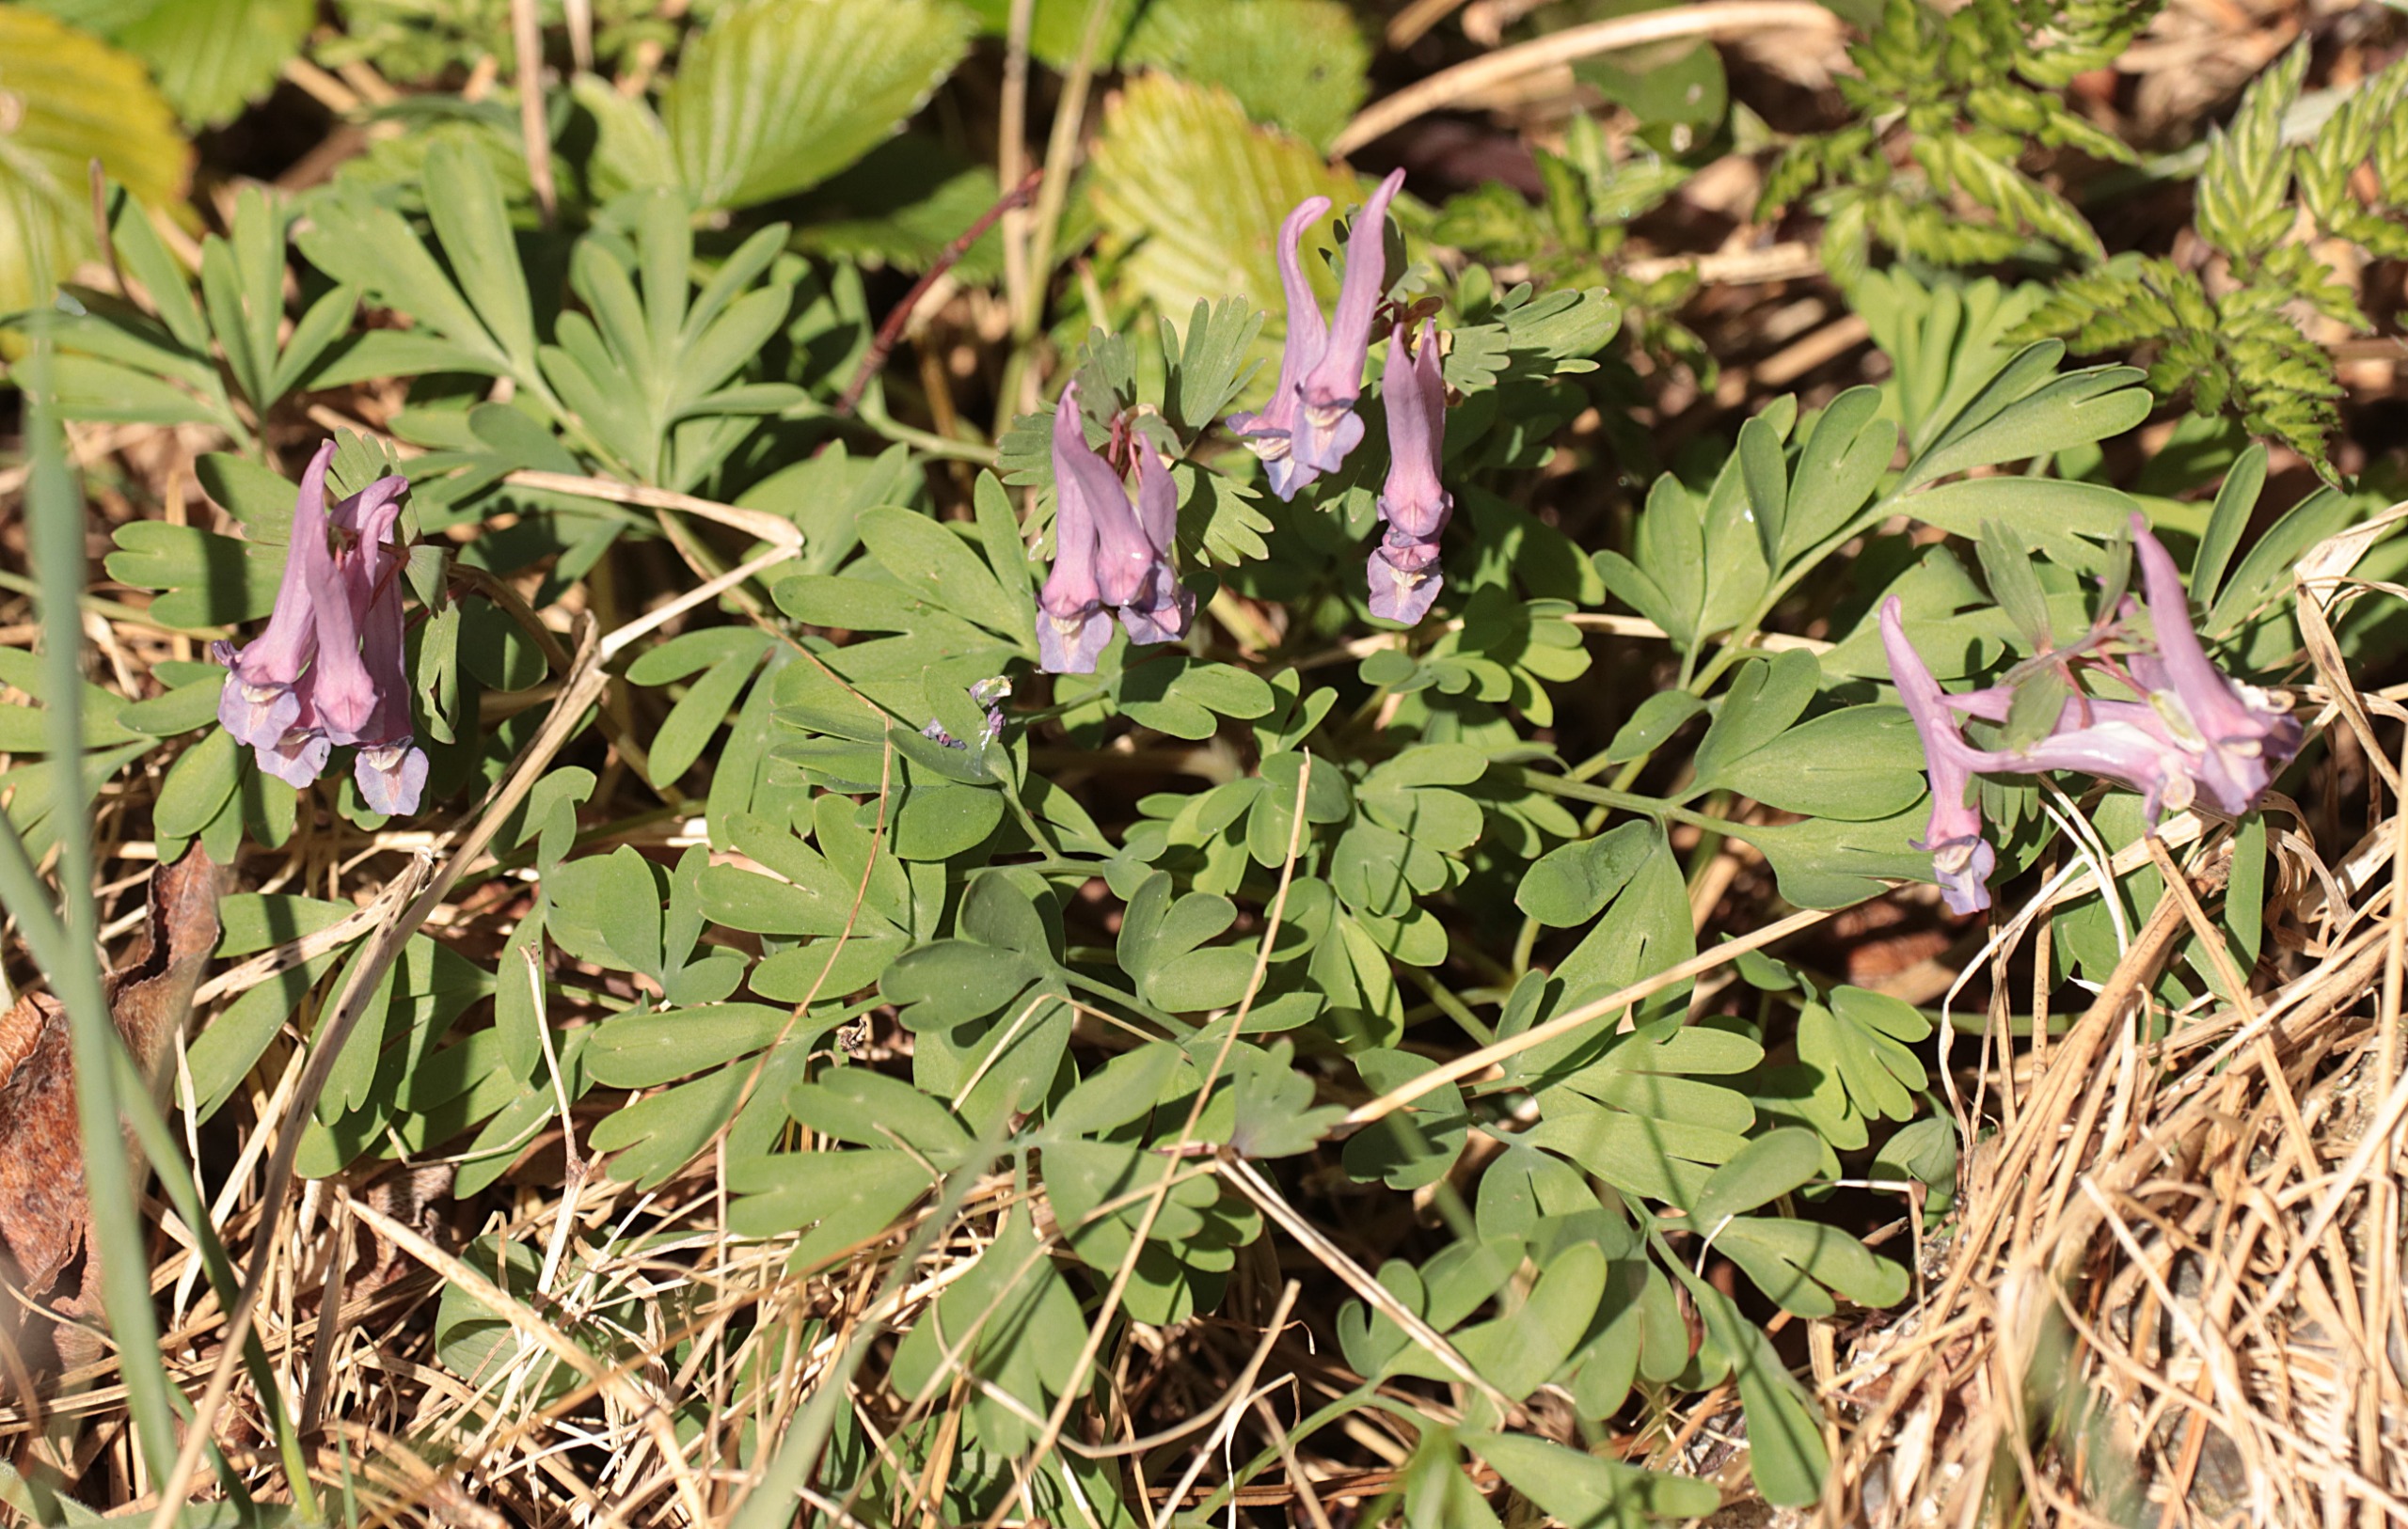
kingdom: Plantae
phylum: Tracheophyta
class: Magnoliopsida
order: Ranunculales
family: Papaveraceae
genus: Corydalis
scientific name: Corydalis solida
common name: Langstilket lærkespore
